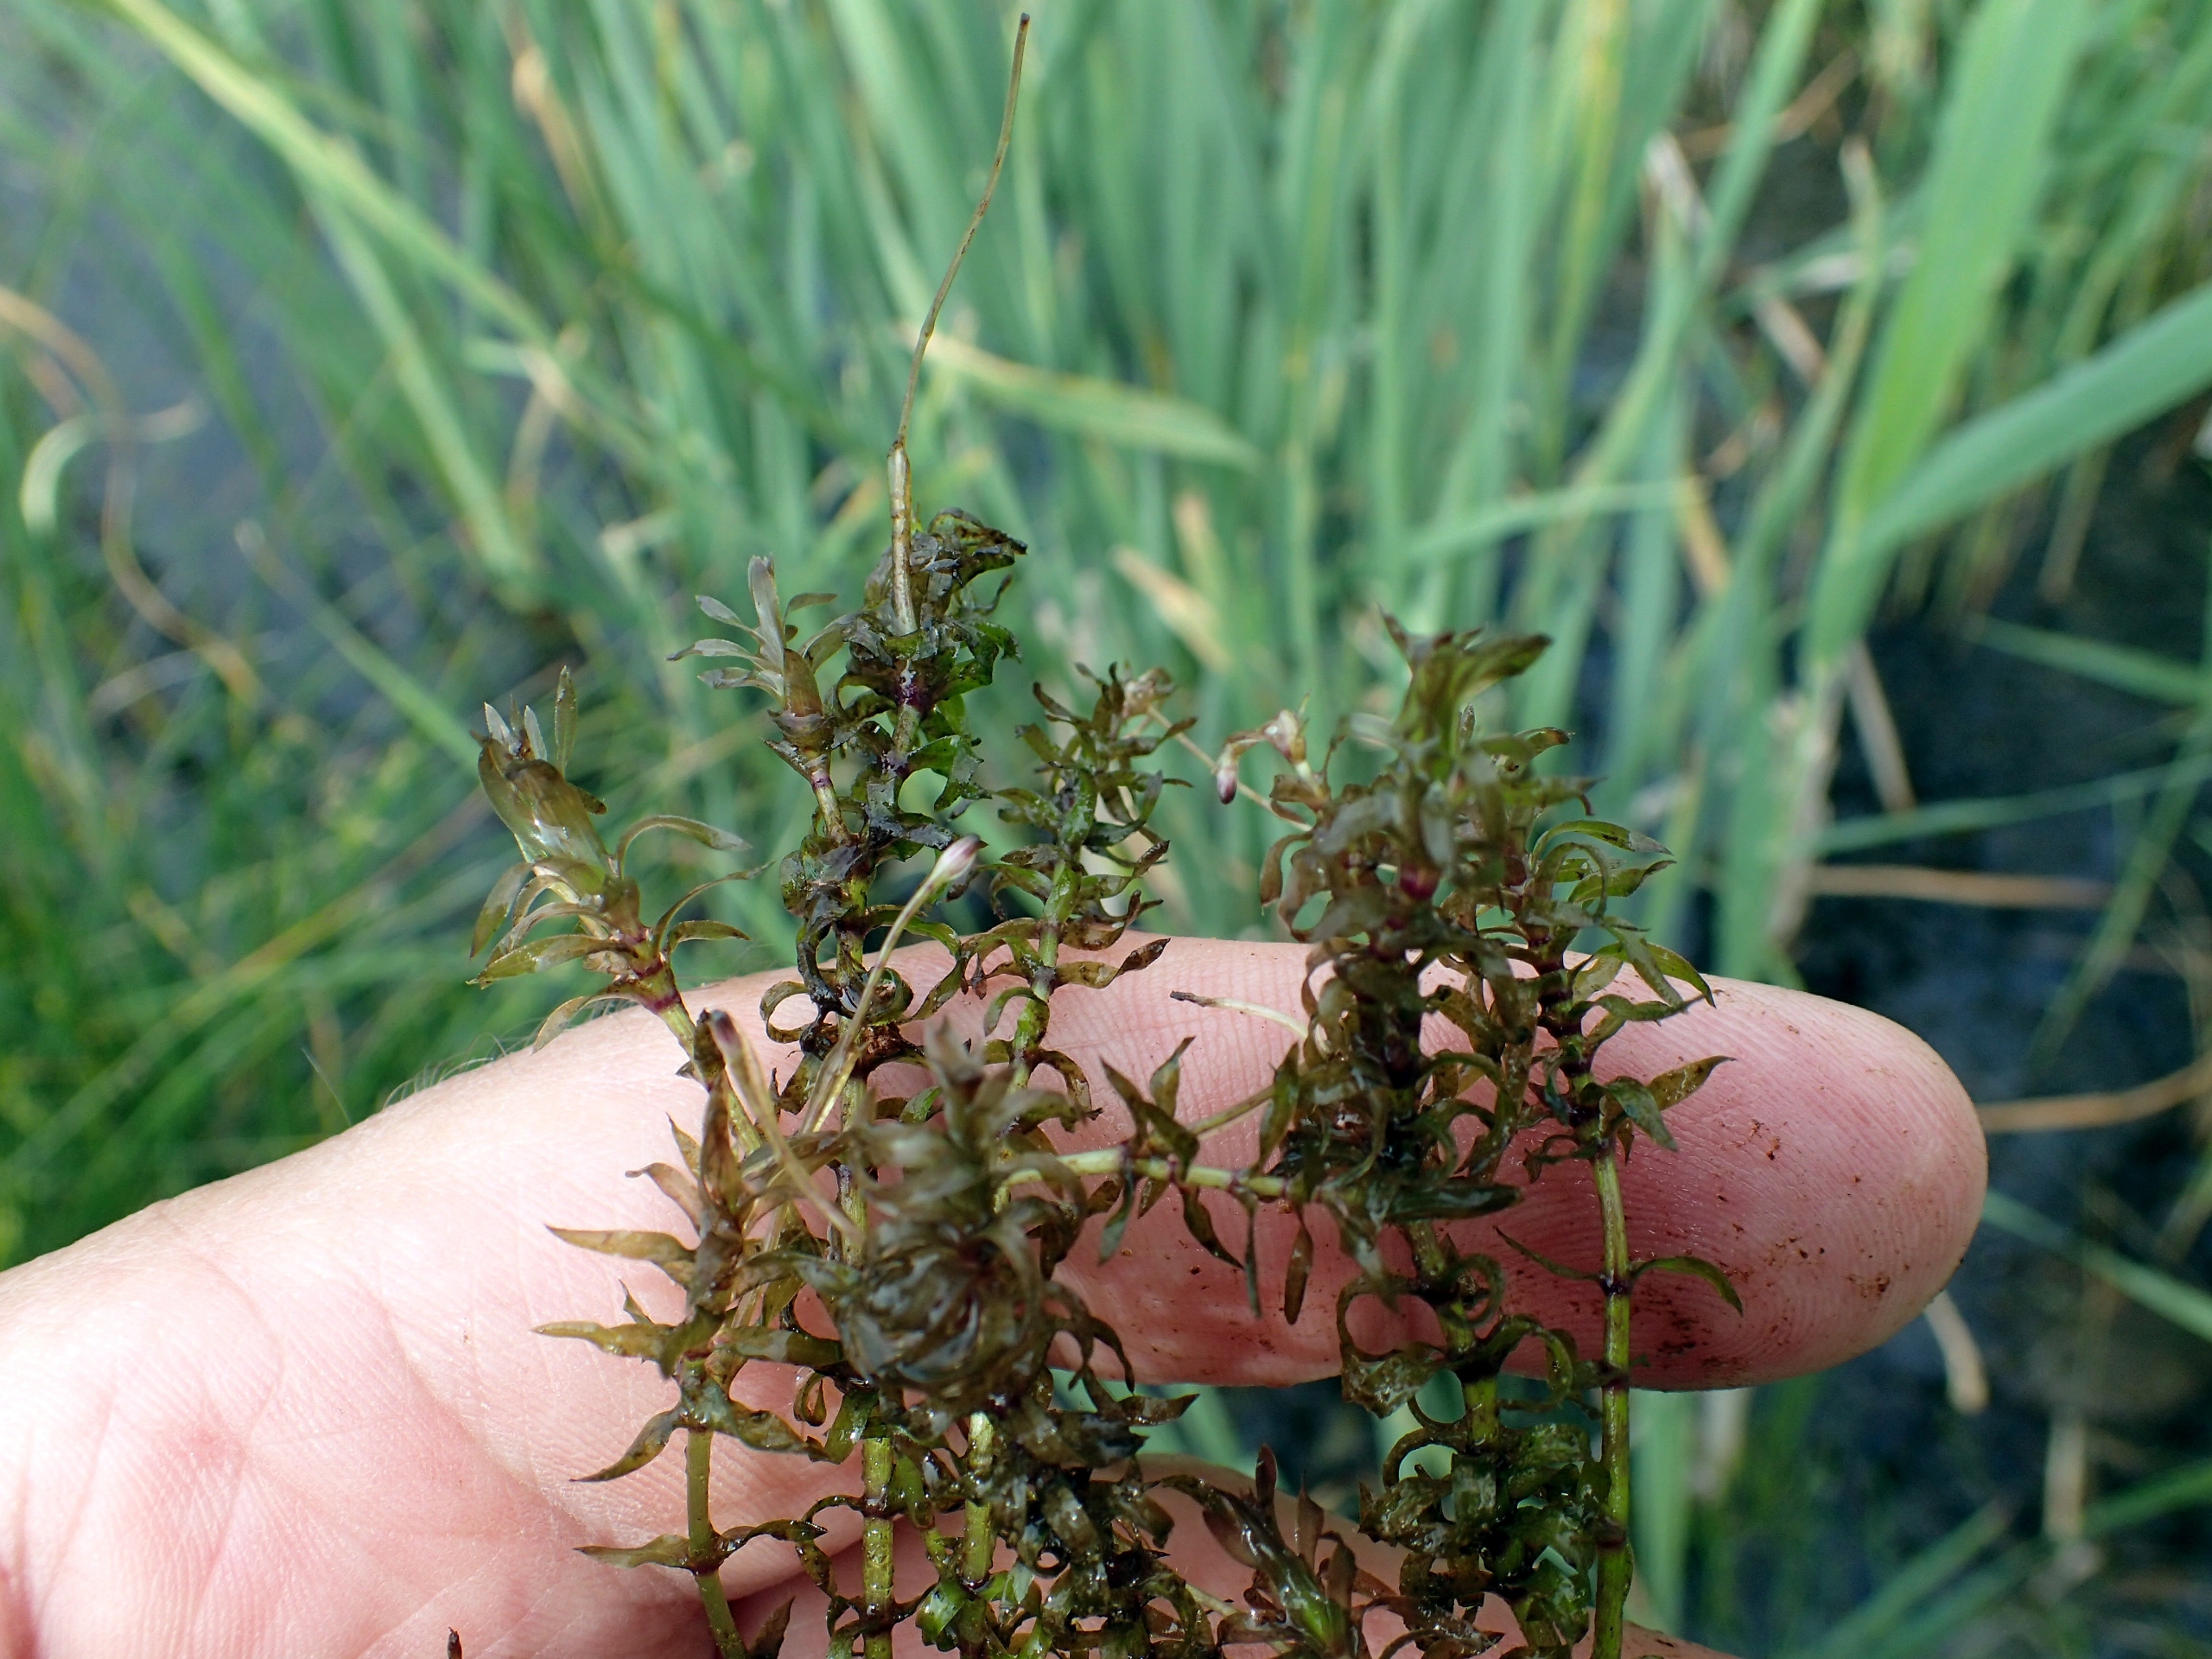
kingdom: Plantae
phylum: Tracheophyta
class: Liliopsida
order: Alismatales
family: Hydrocharitaceae
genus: Elodea
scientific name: Elodea nuttallii
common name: Smalbladet vandpest
